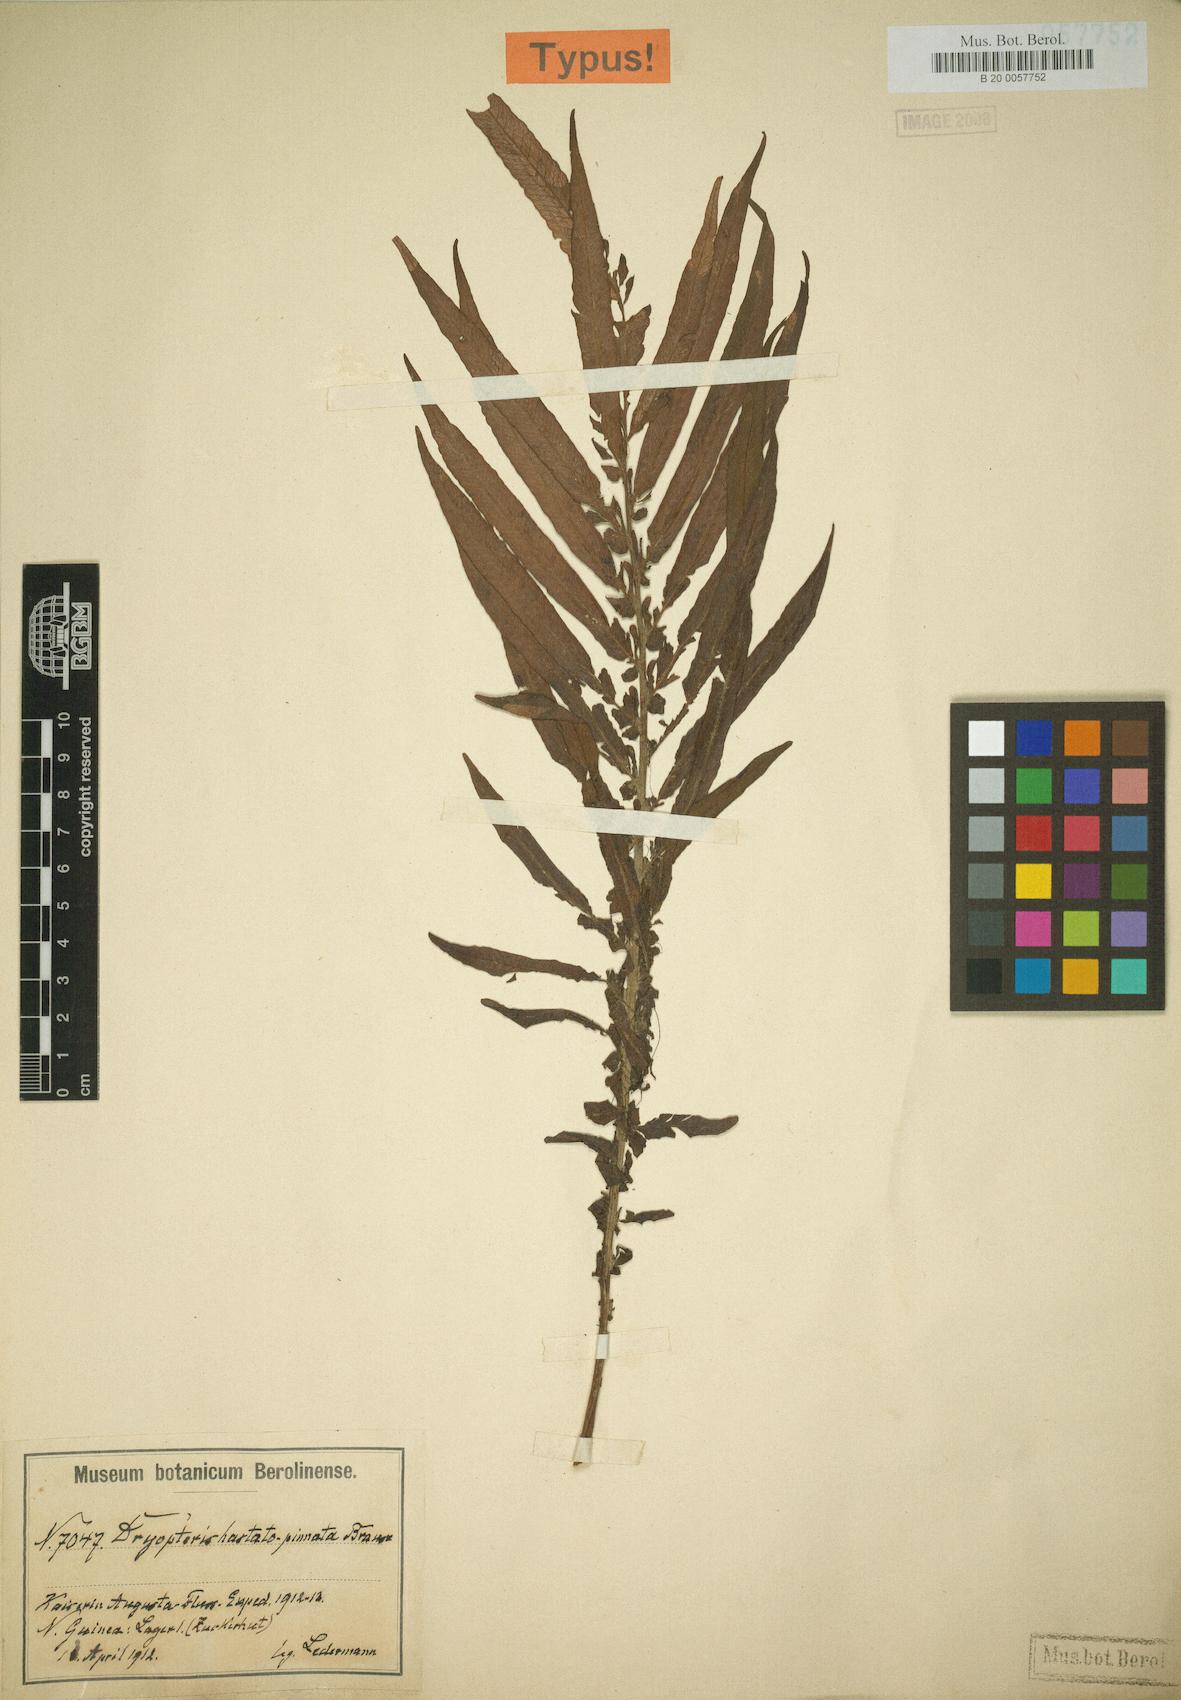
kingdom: Plantae
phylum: Tracheophyta
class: Polypodiopsida
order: Polypodiales
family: Thelypteridaceae
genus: Sphaerostephanos
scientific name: Sphaerostephanos hastatopinnatus
